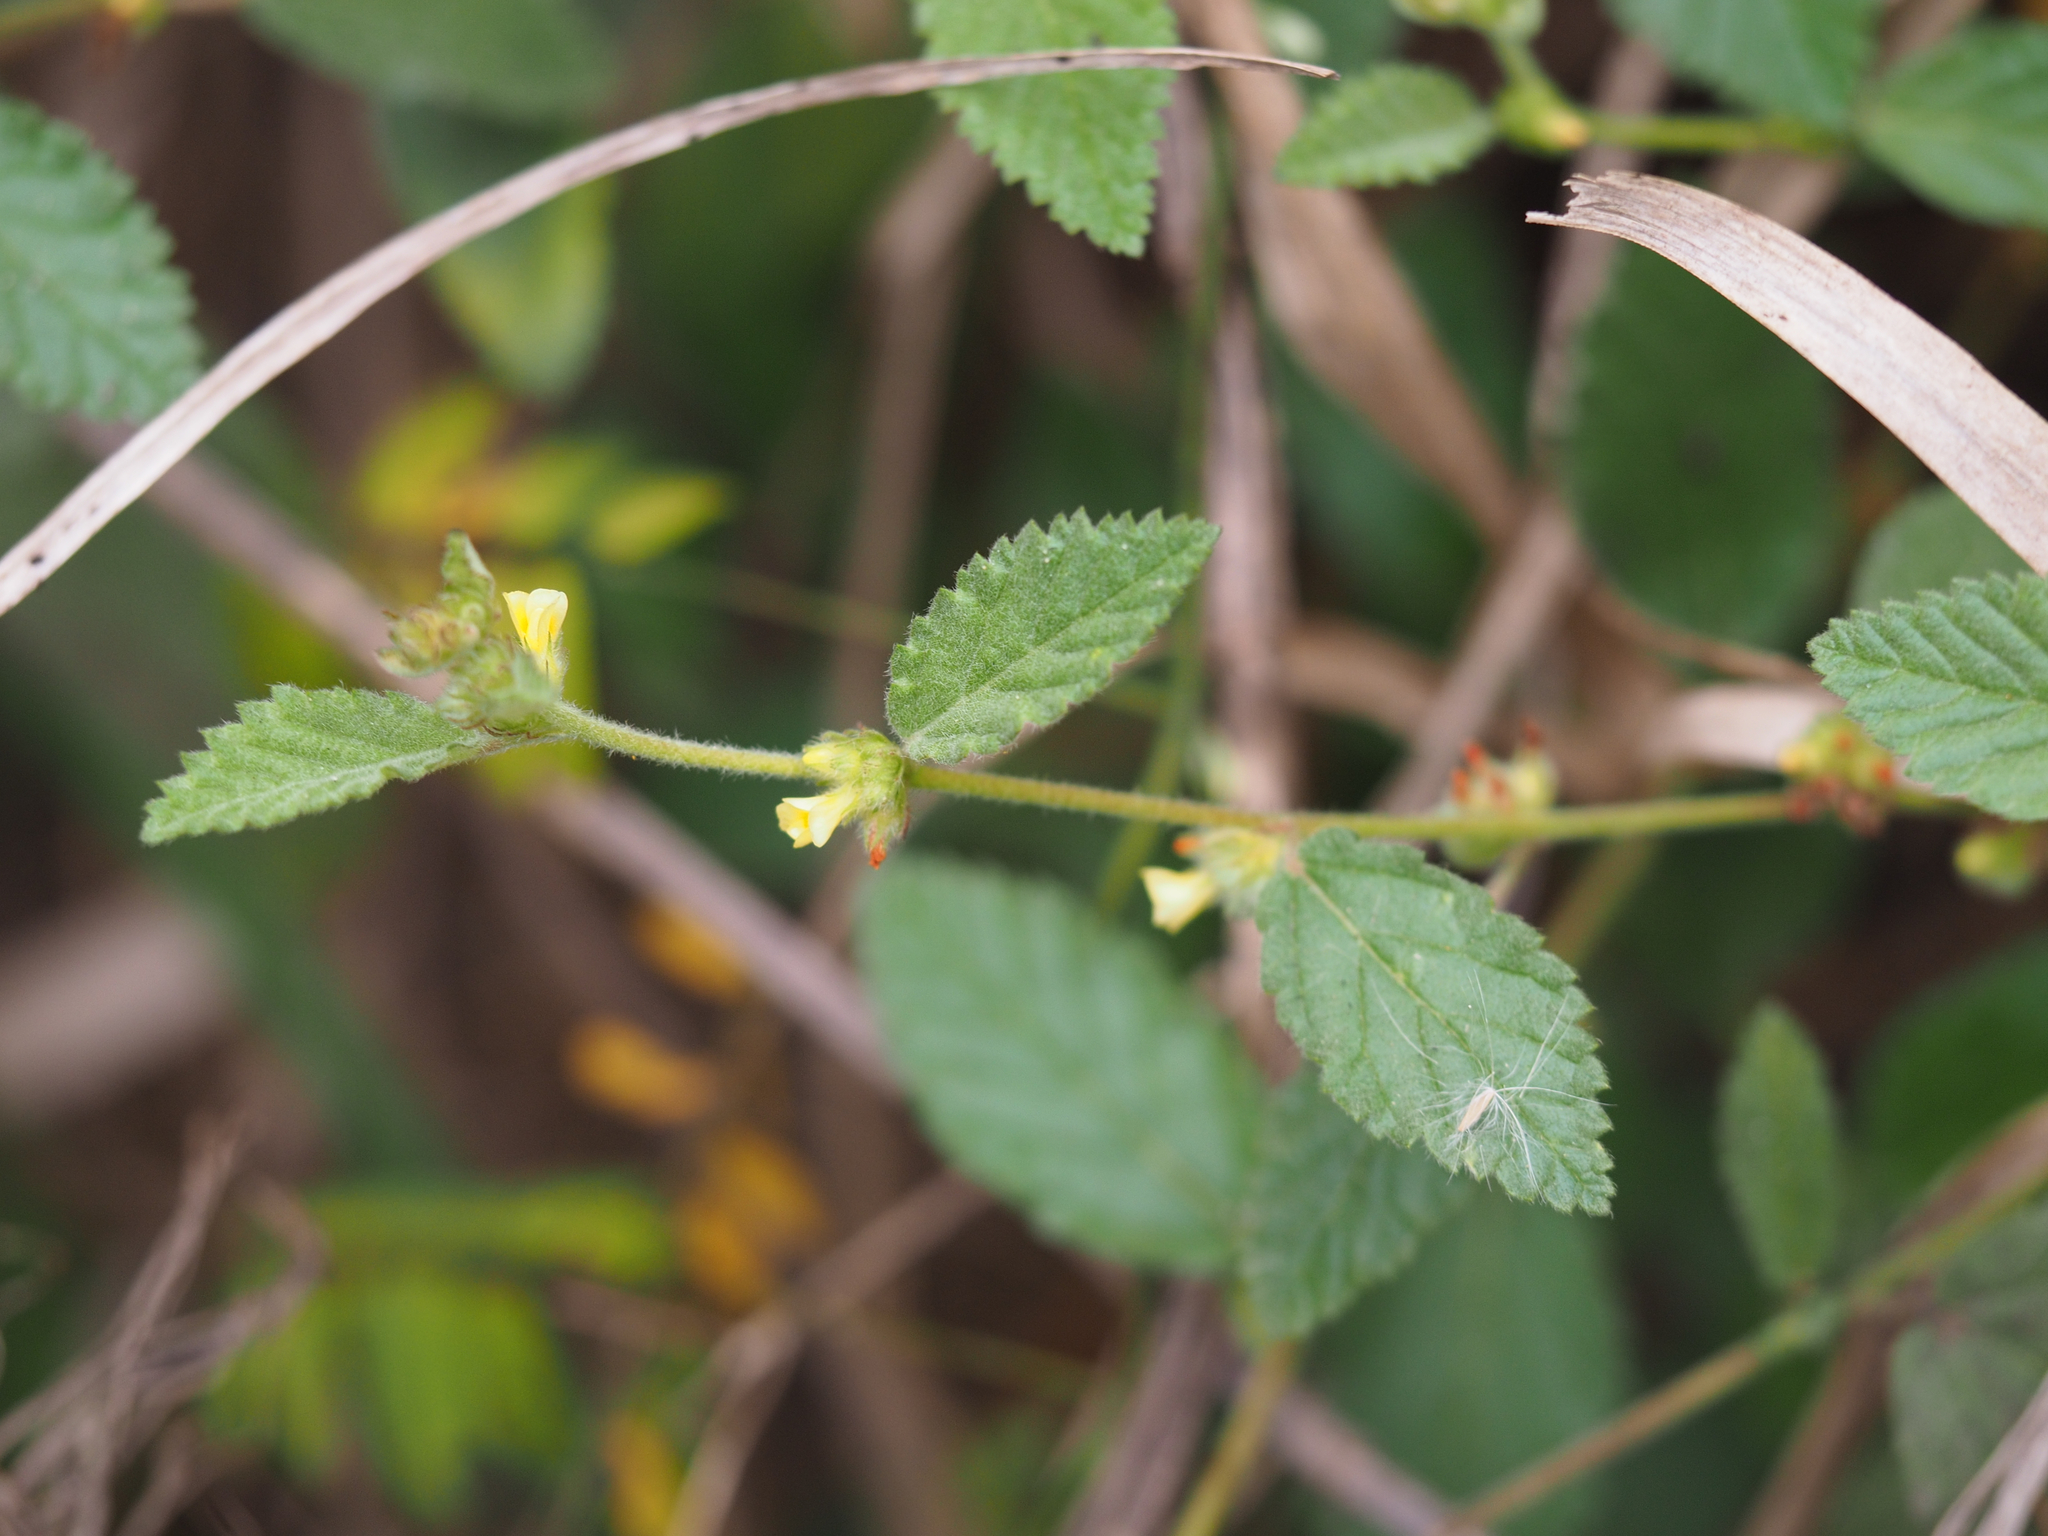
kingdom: Plantae
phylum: Tracheophyta
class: Magnoliopsida
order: Malvales
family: Malvaceae
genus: Waltheria
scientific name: Waltheria indica
